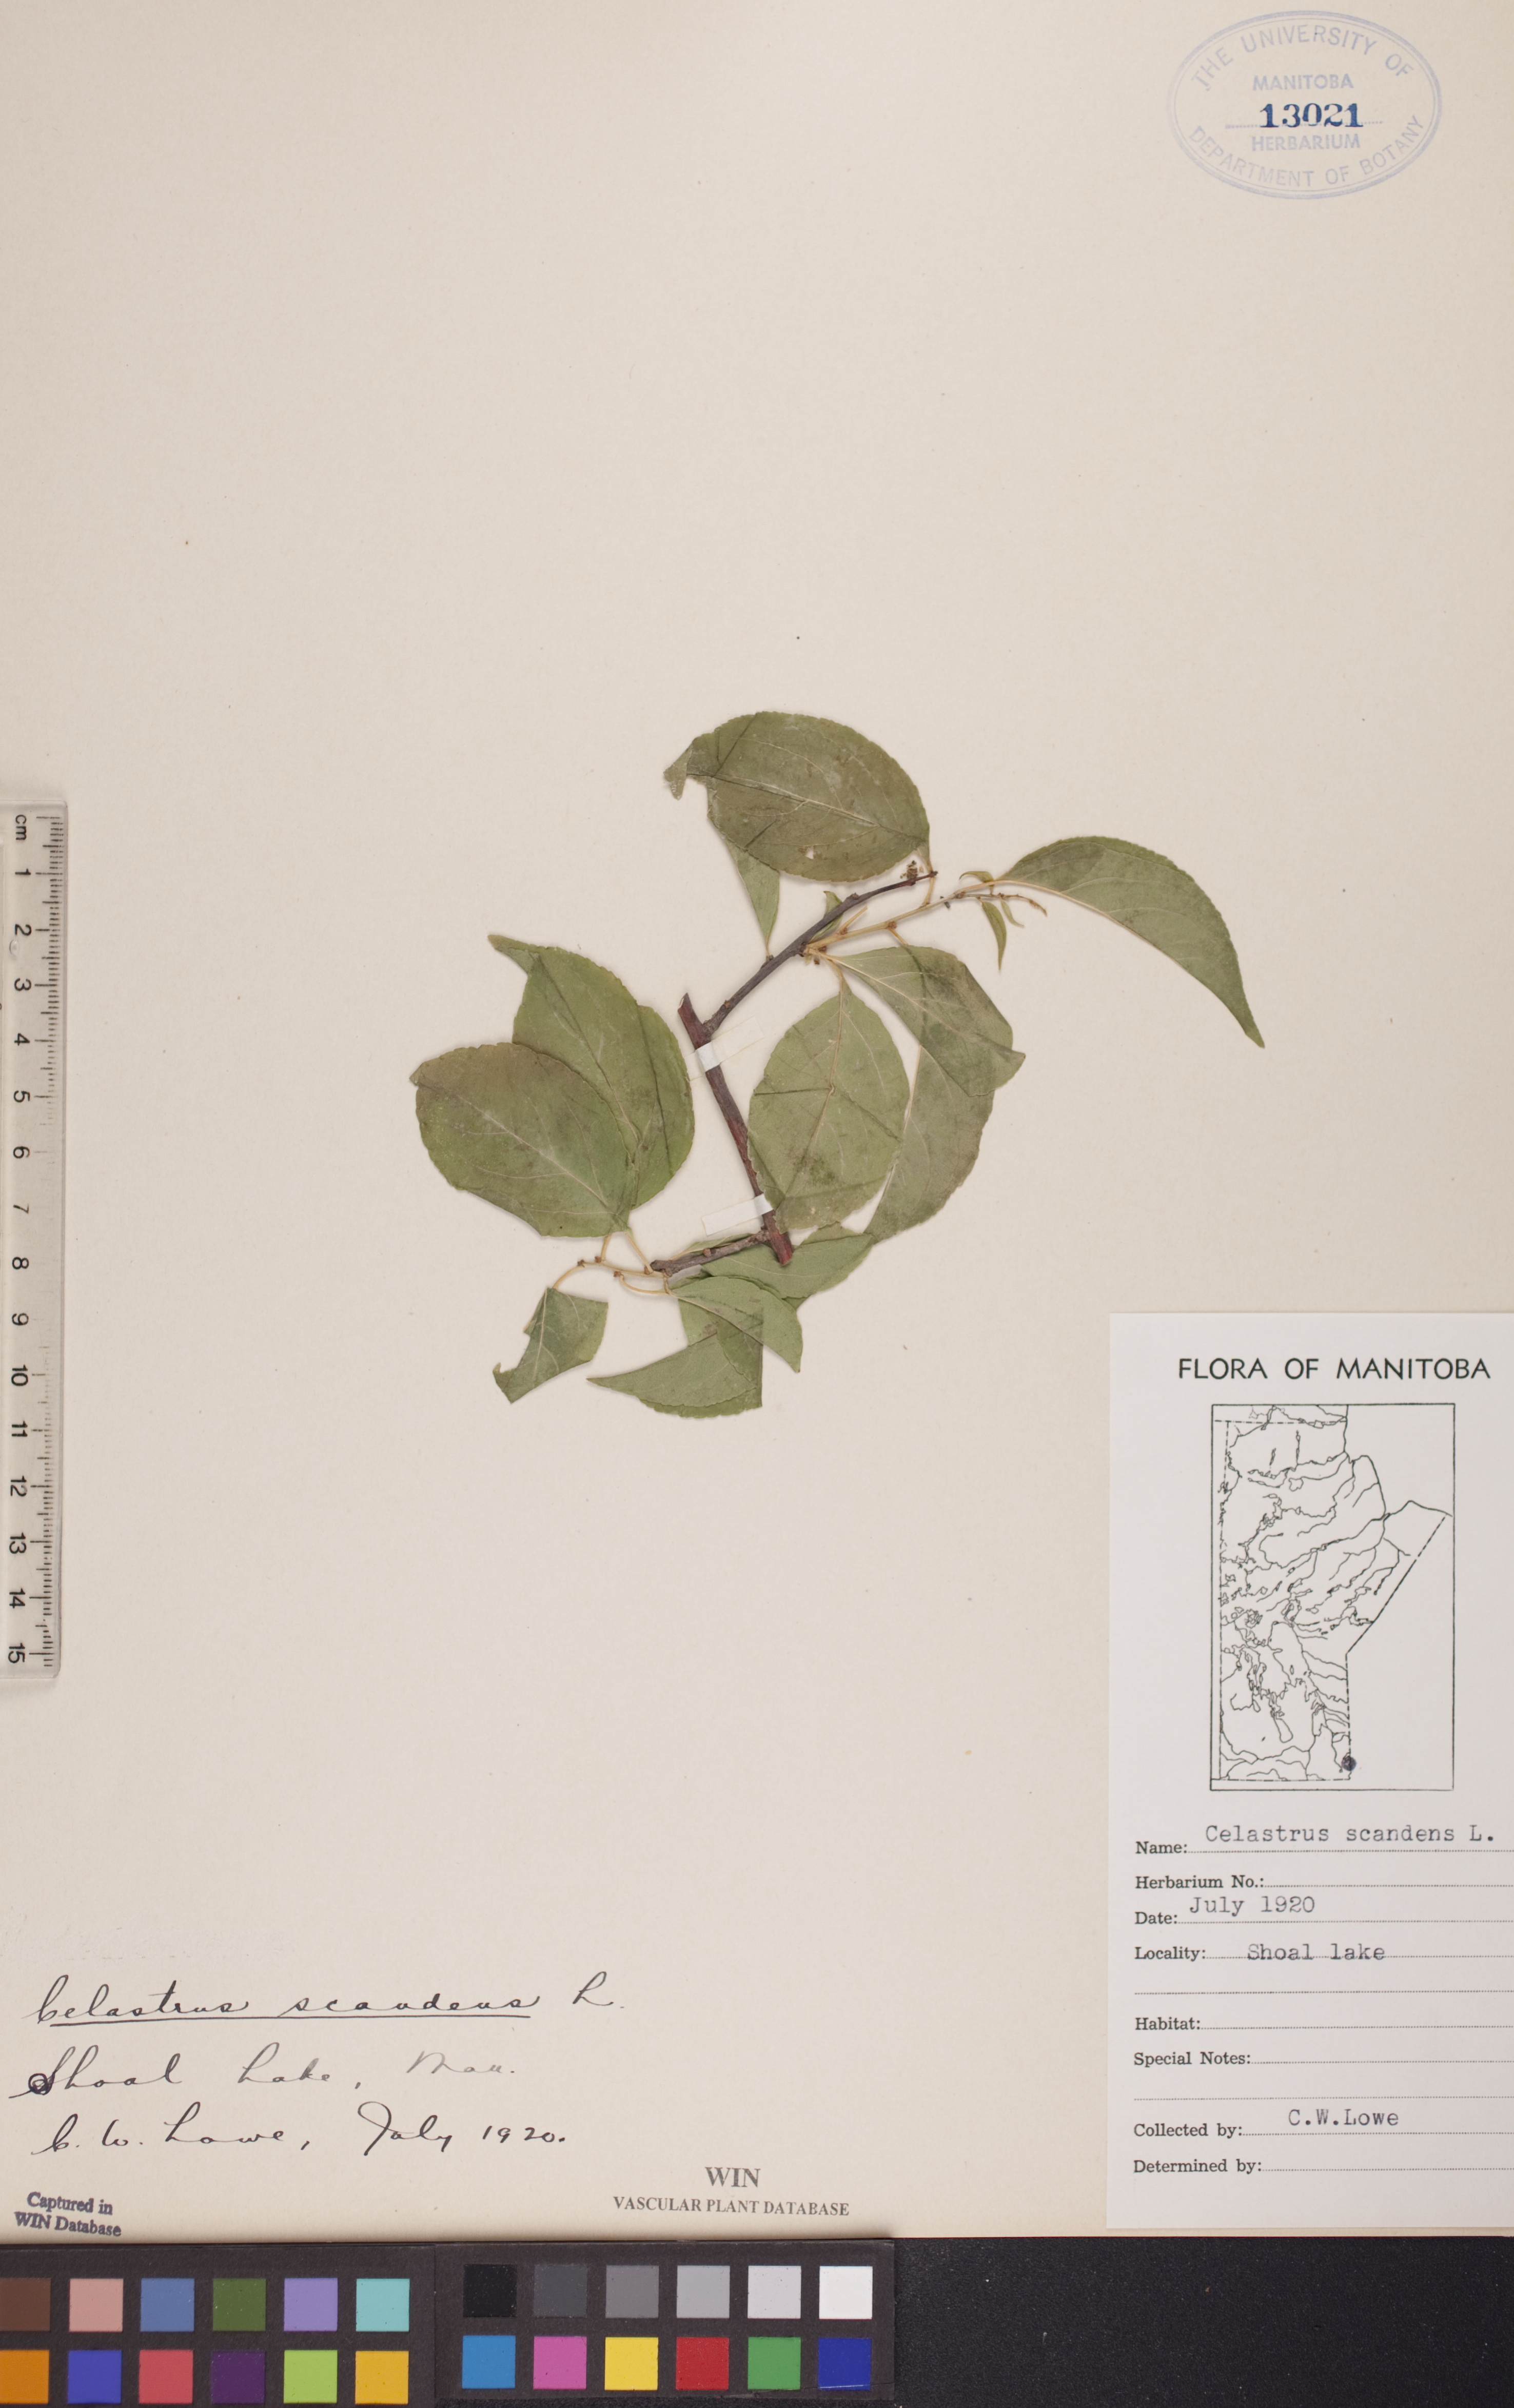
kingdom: Plantae
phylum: Tracheophyta
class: Magnoliopsida
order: Celastrales
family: Celastraceae
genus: Celastrus
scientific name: Celastrus scandens
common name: American bittersweet
